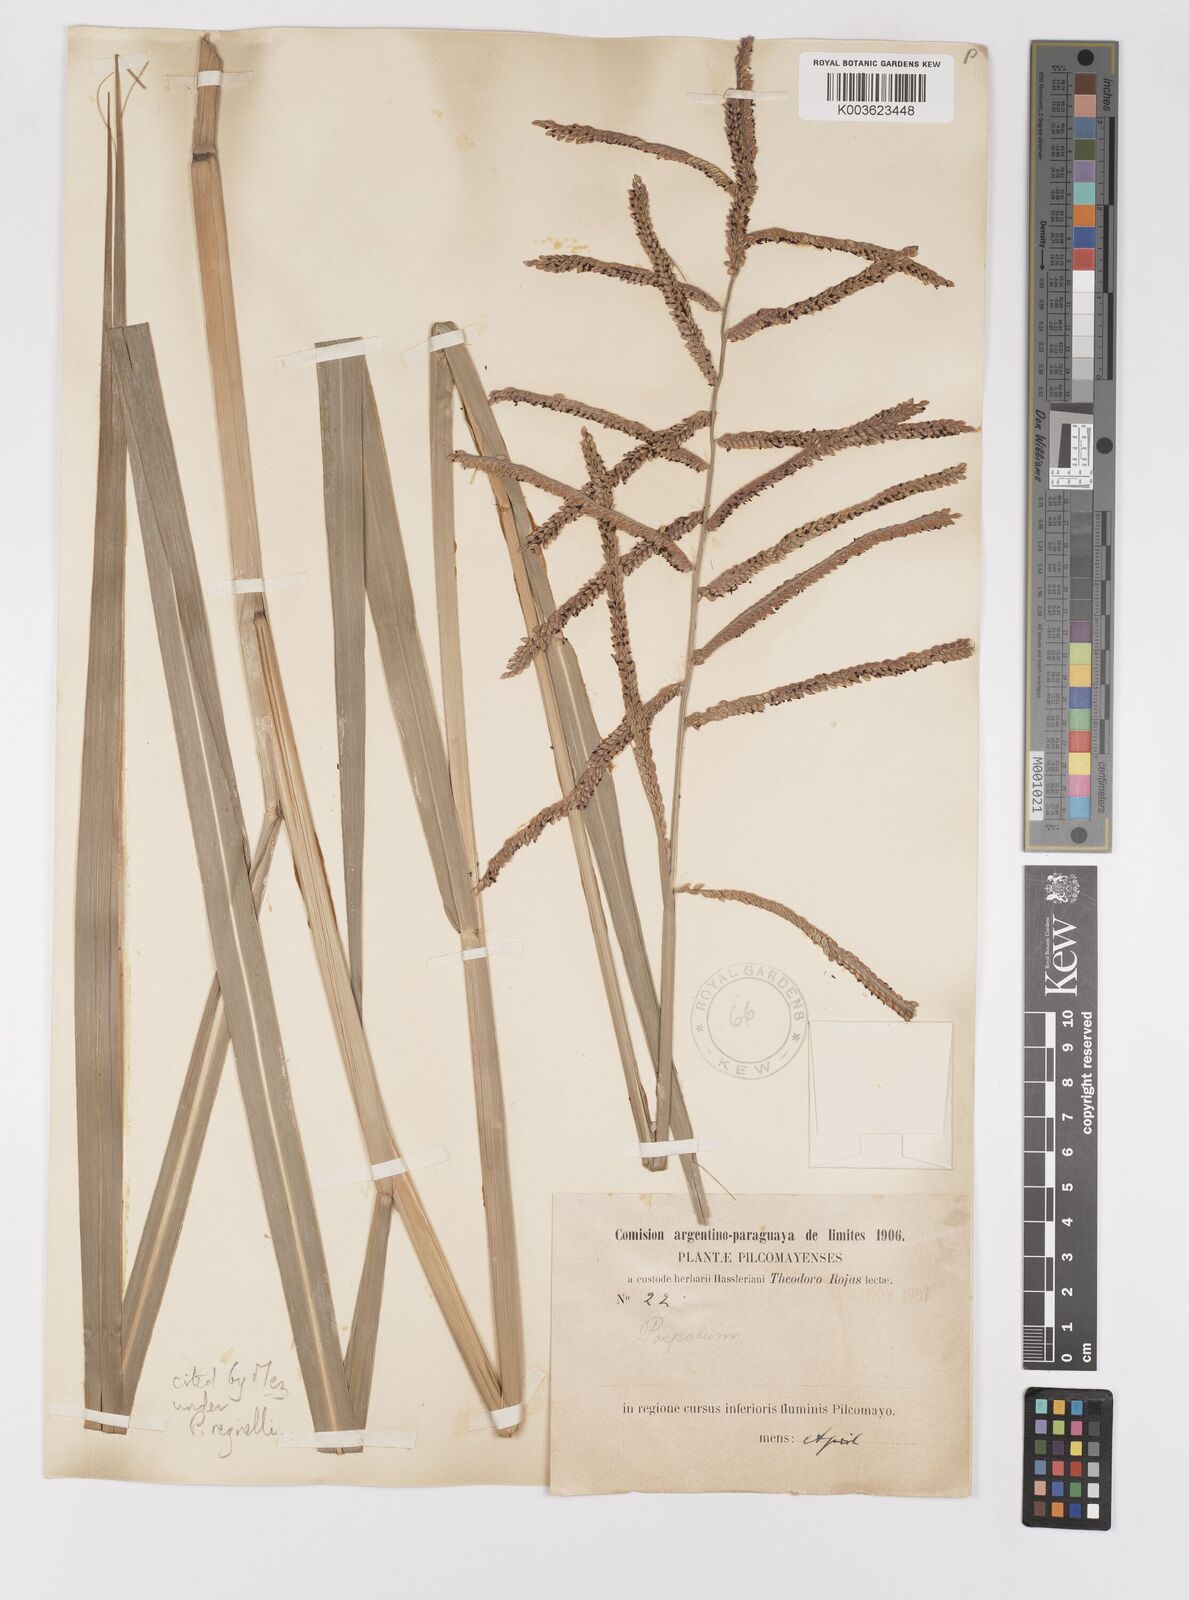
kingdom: Plantae
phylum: Tracheophyta
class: Liliopsida
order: Poales
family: Poaceae
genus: Paspalum
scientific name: Paspalum conspersum
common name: Scattered paspalum
